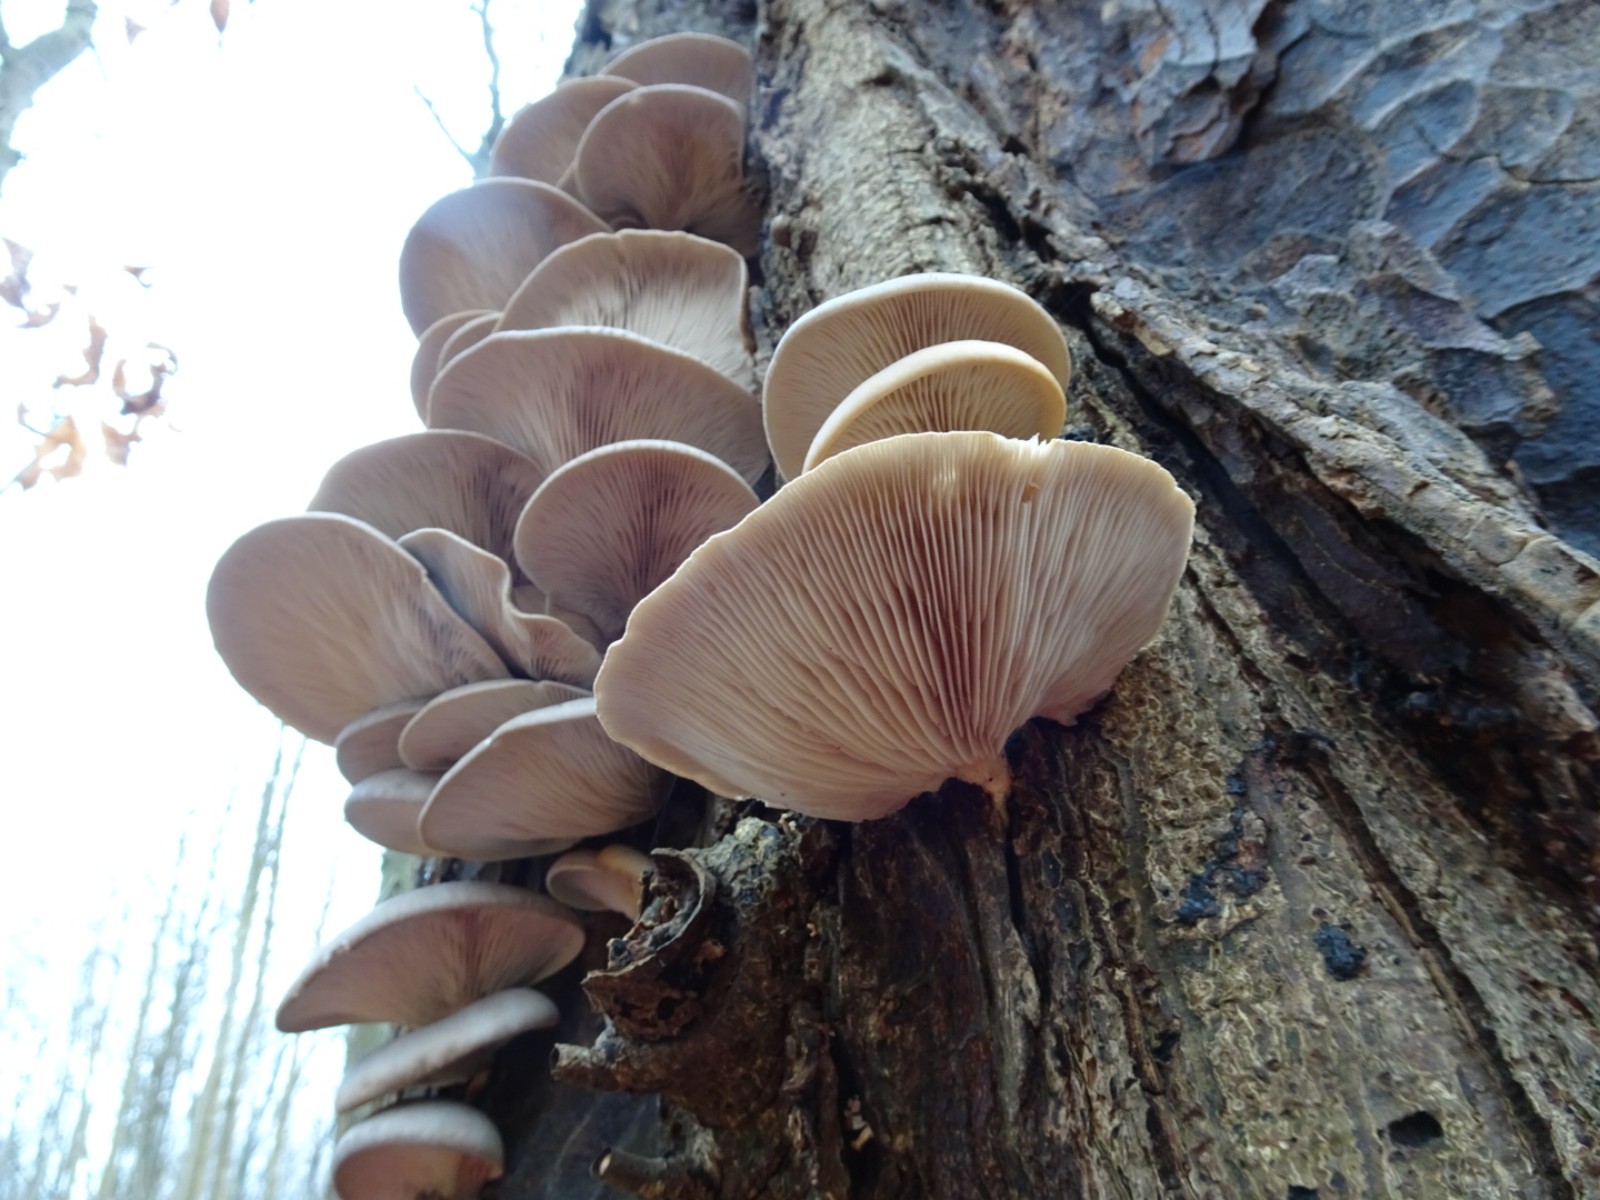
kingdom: Fungi
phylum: Basidiomycota
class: Agaricomycetes
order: Agaricales
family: Pleurotaceae
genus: Pleurotus
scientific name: Pleurotus ostreatus
